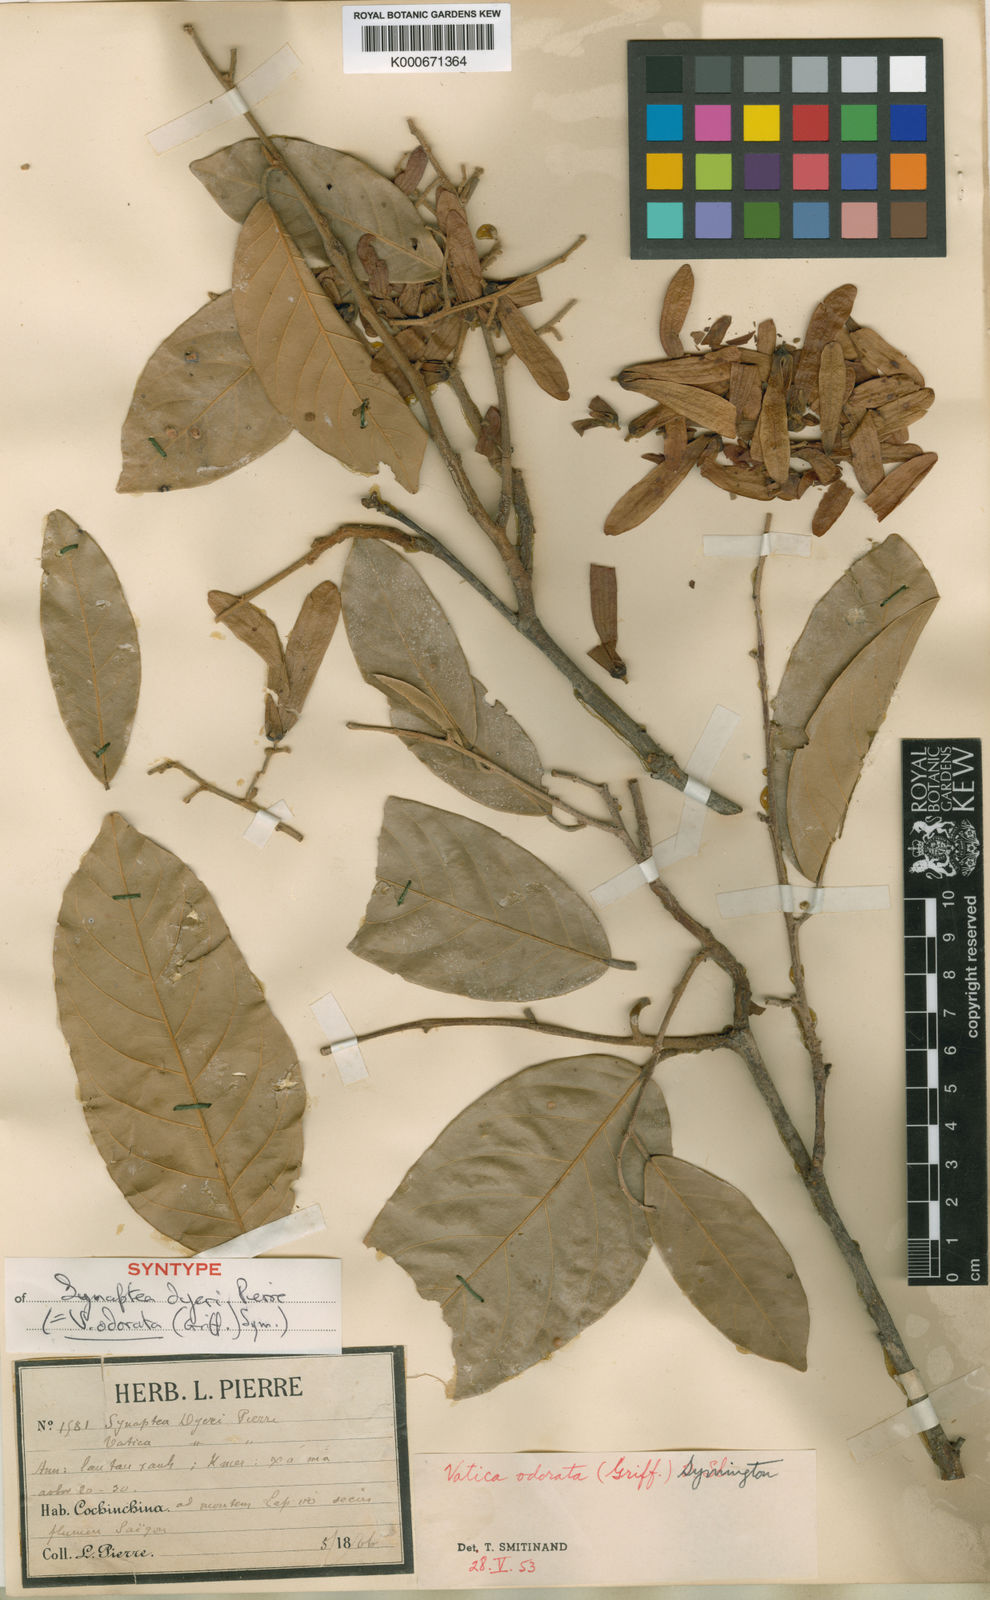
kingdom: Plantae
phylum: Tracheophyta
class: Magnoliopsida
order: Malvales
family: Dipterocarpaceae
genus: Vatica
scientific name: Vatica odorata
